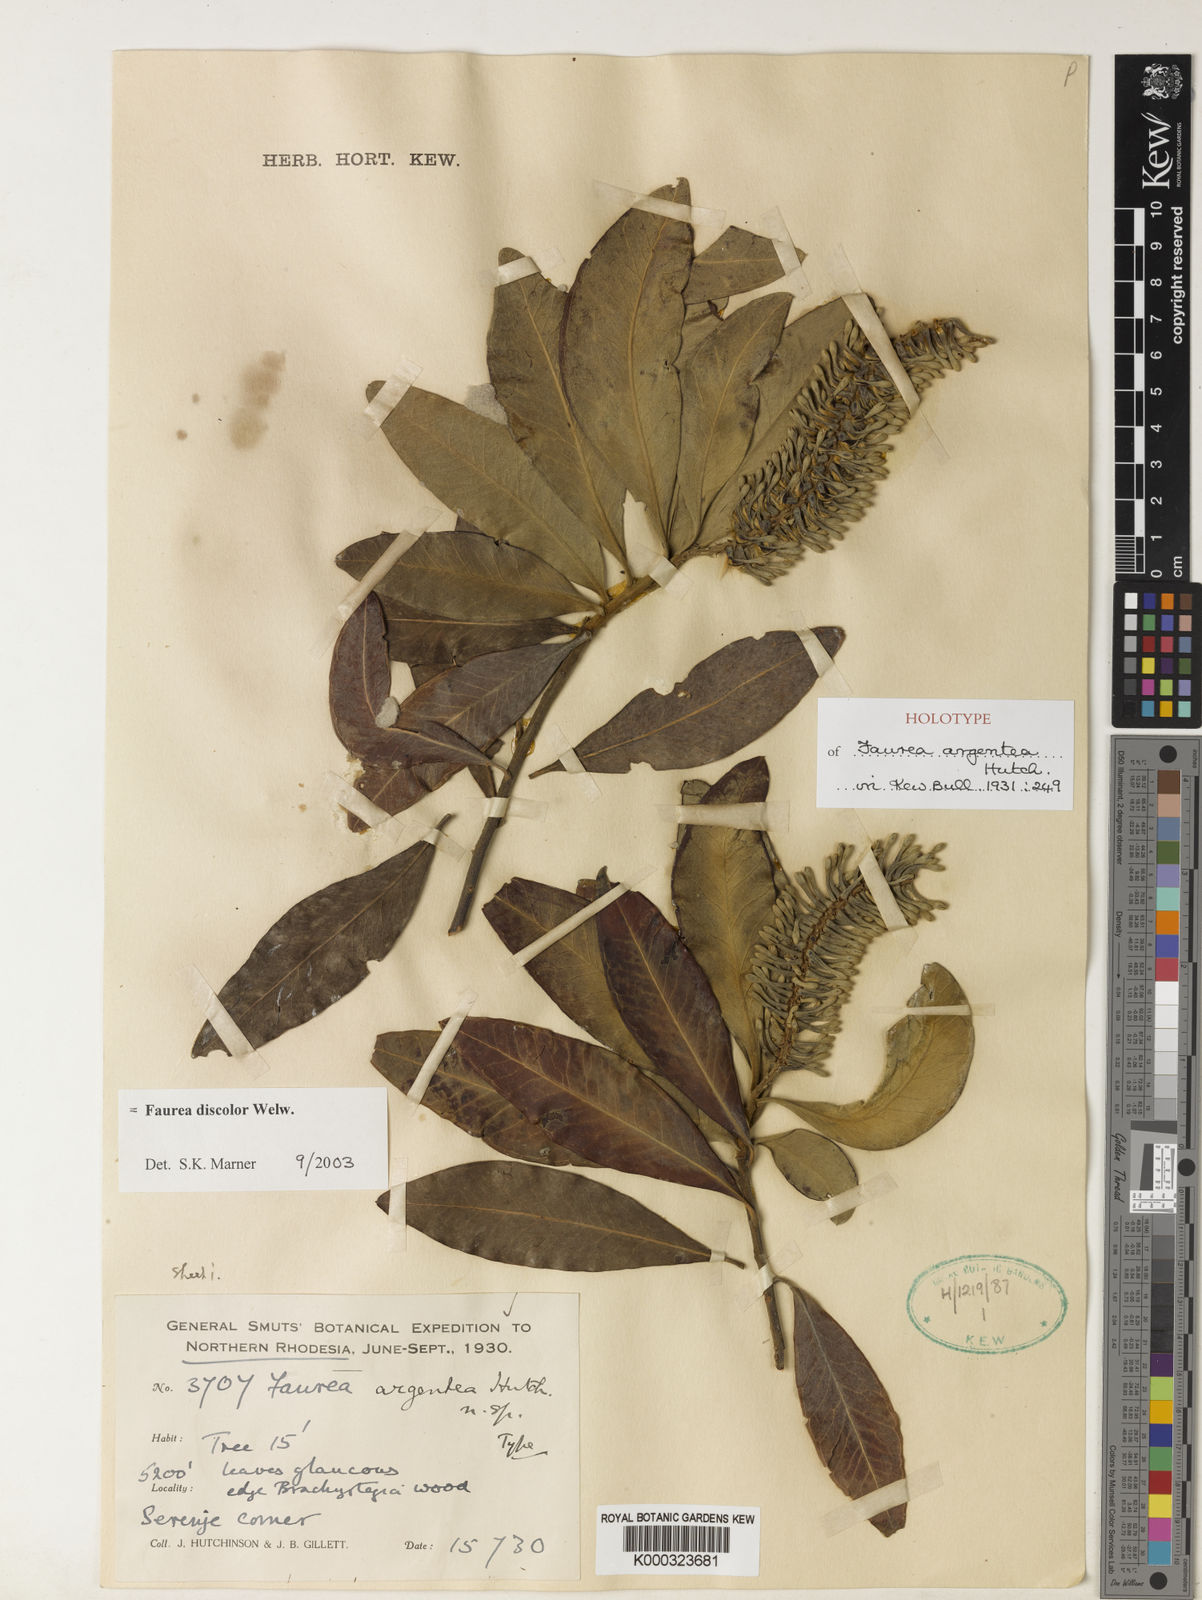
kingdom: Plantae
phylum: Tracheophyta
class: Magnoliopsida
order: Proteales
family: Proteaceae
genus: Faurea
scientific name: Faurea intermedia
